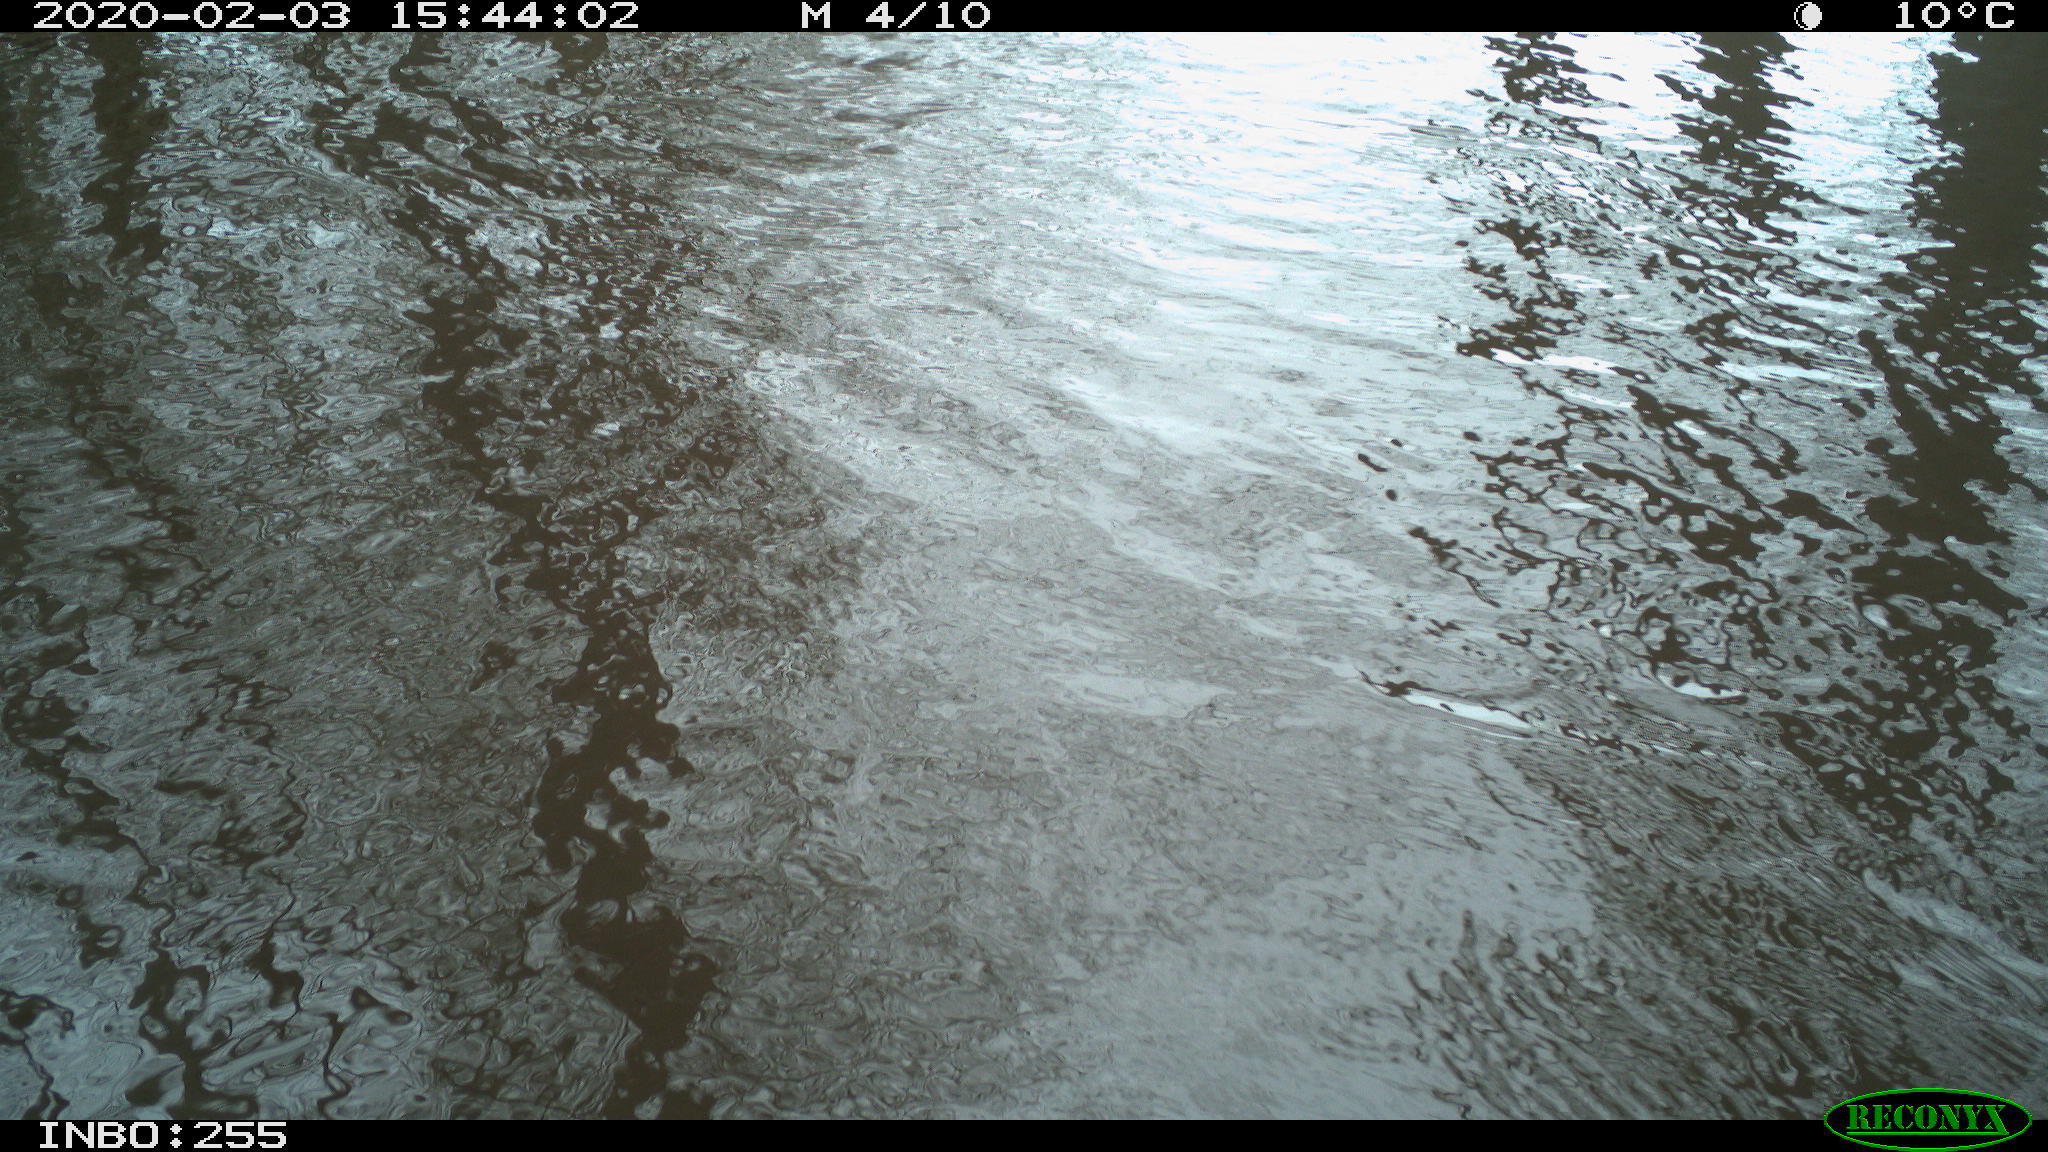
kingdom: Animalia
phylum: Chordata
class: Aves
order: Gruiformes
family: Rallidae
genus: Fulica
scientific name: Fulica atra
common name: Eurasian coot
